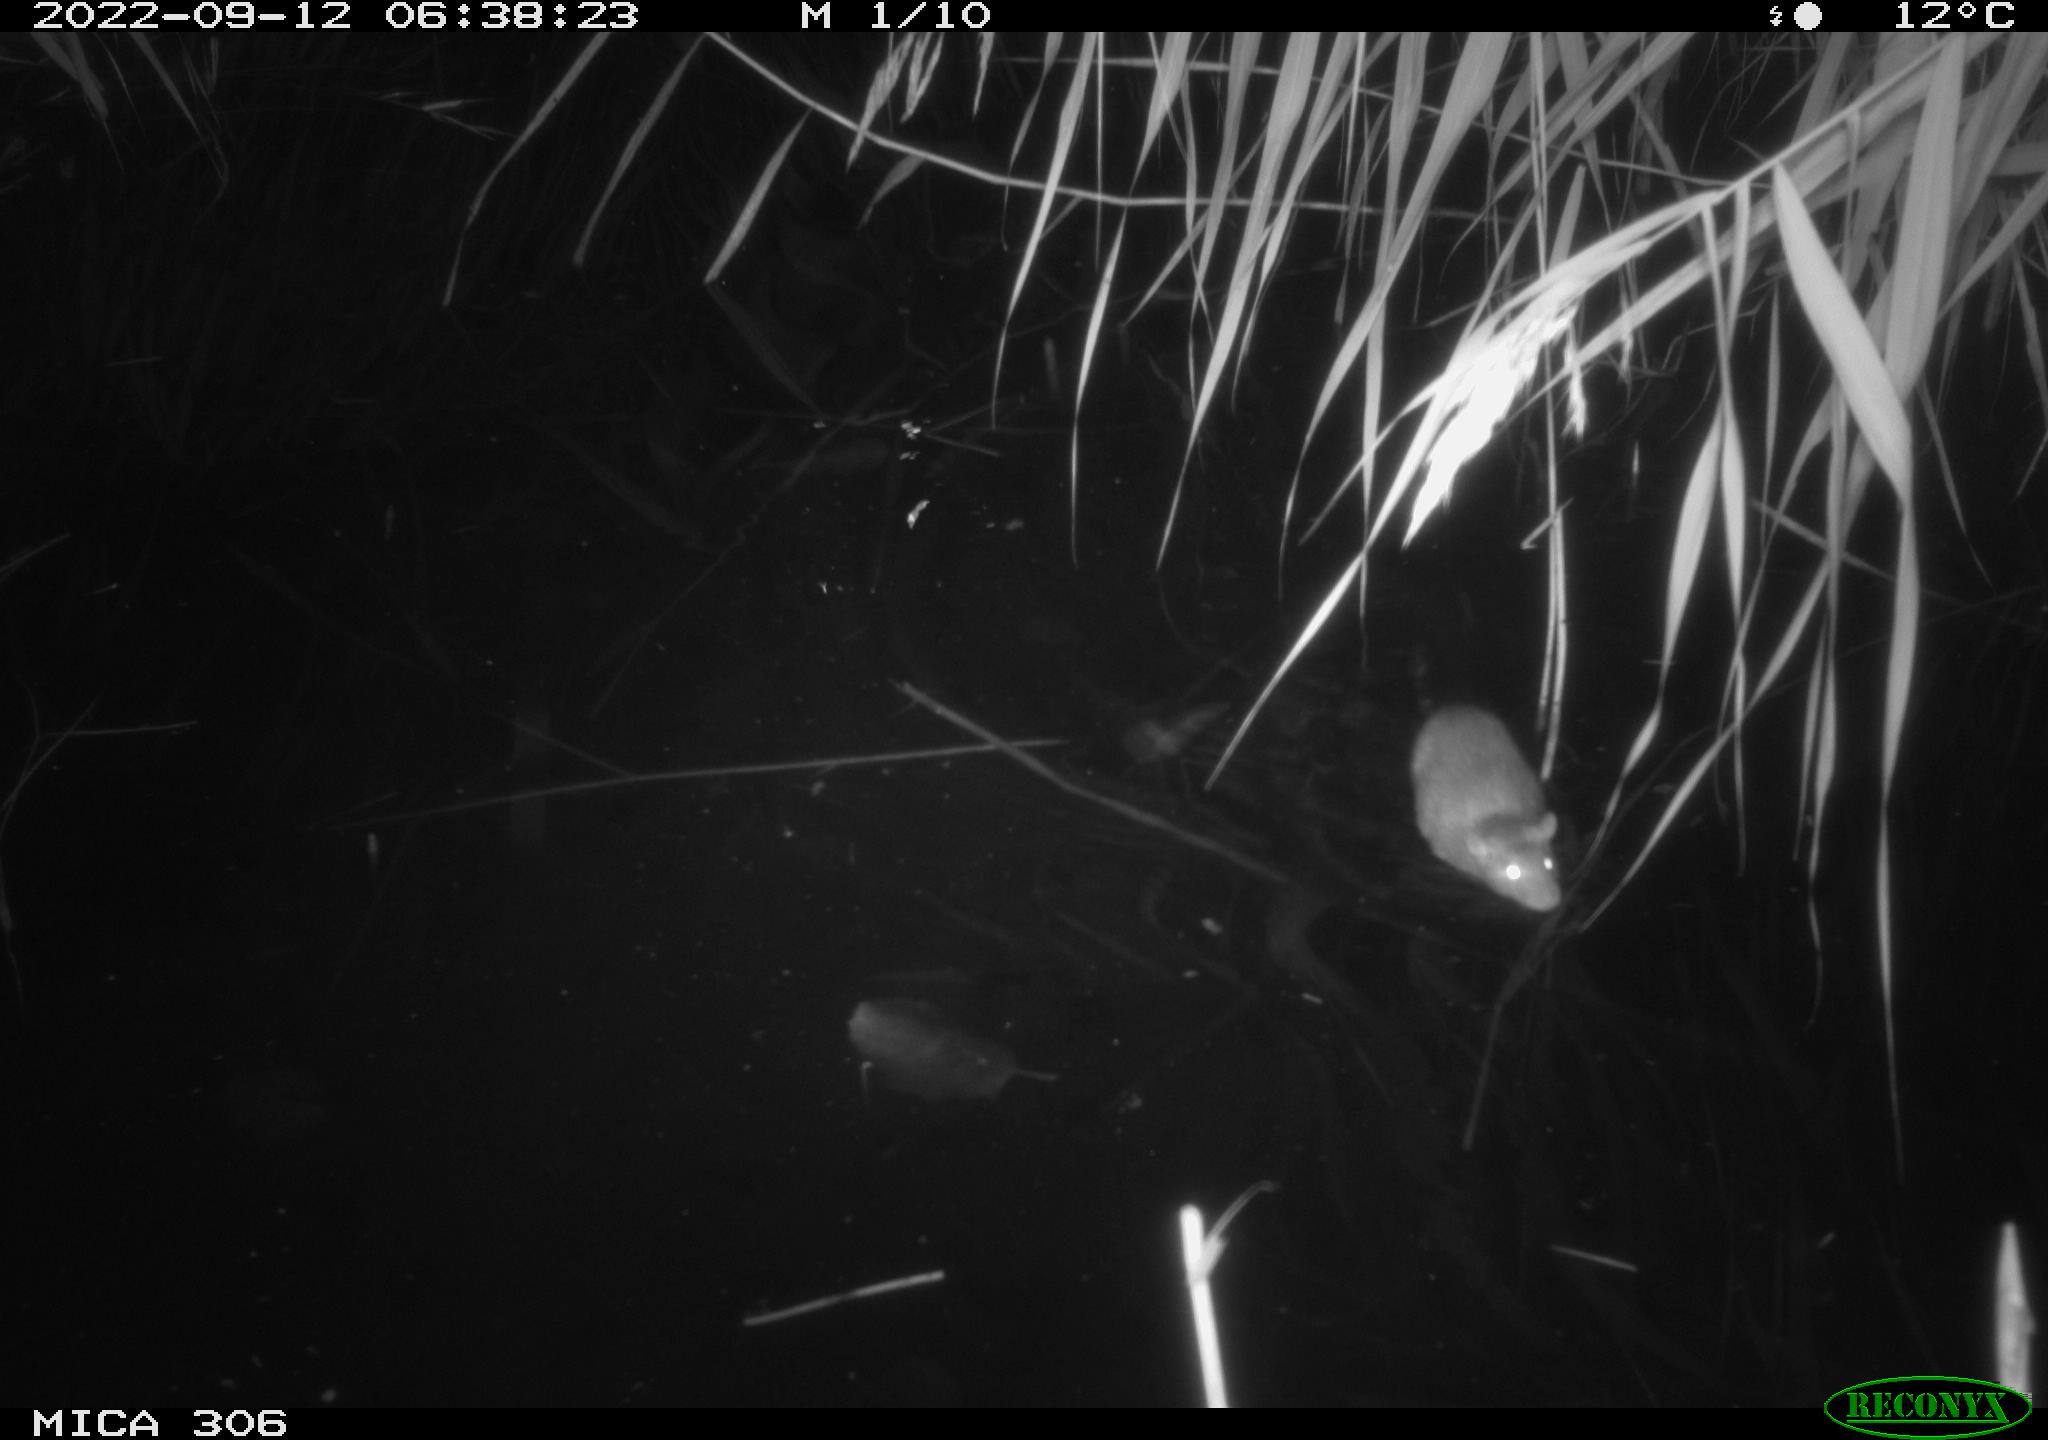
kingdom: Animalia
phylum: Chordata
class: Mammalia
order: Rodentia
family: Muridae
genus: Rattus
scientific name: Rattus norvegicus
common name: Brown rat
